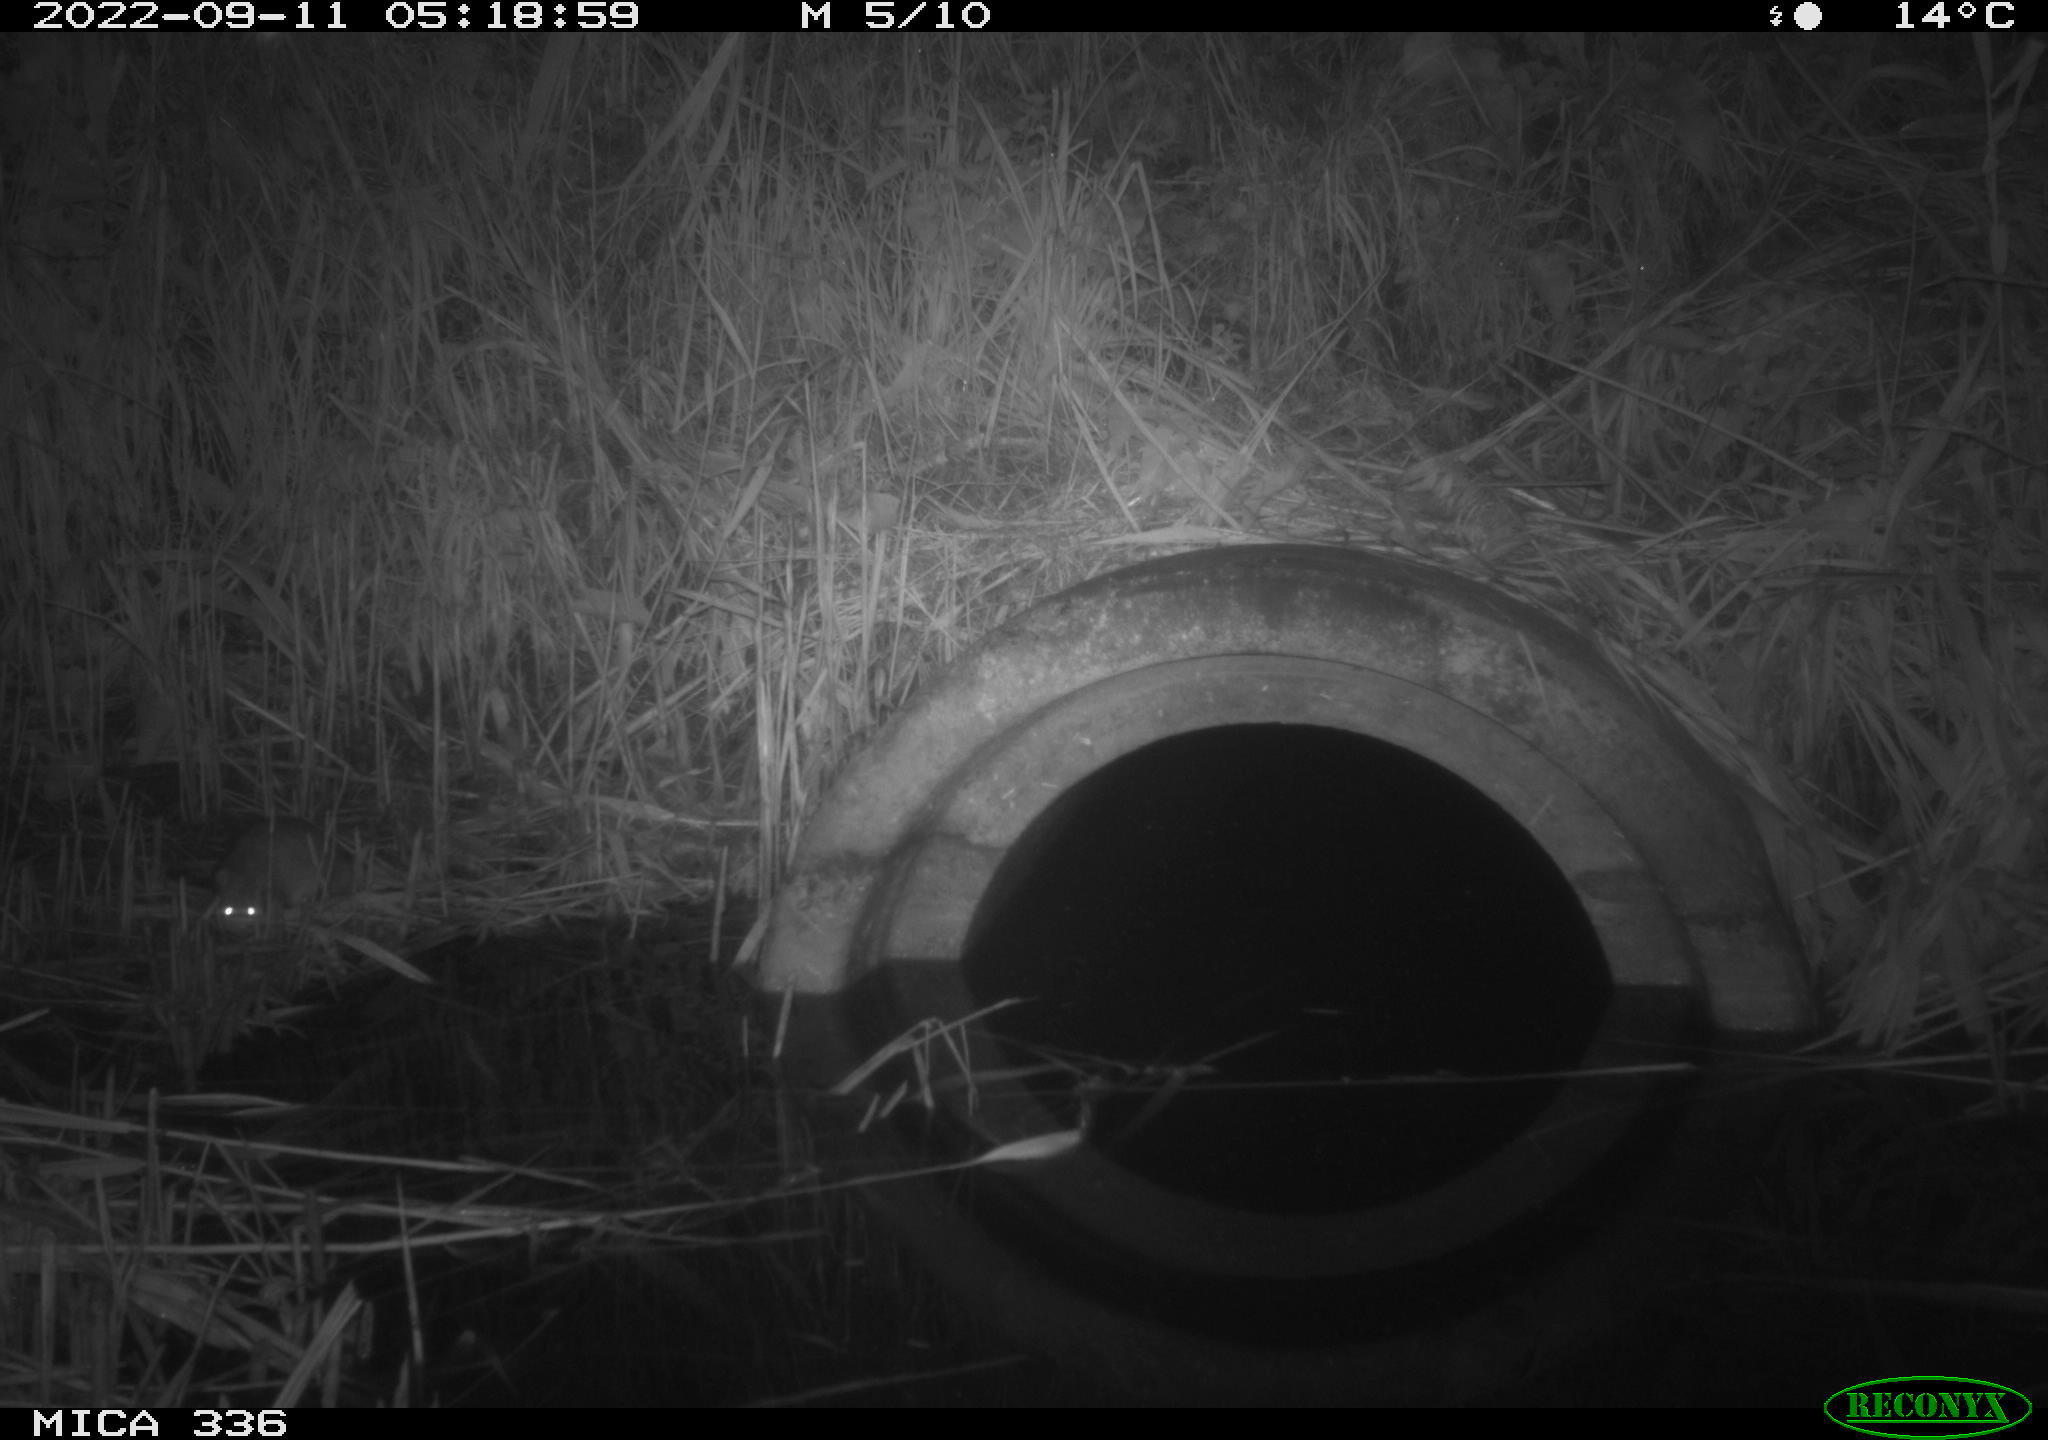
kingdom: Animalia
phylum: Chordata
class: Mammalia
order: Rodentia
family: Muridae
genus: Rattus
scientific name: Rattus norvegicus
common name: Brown rat
